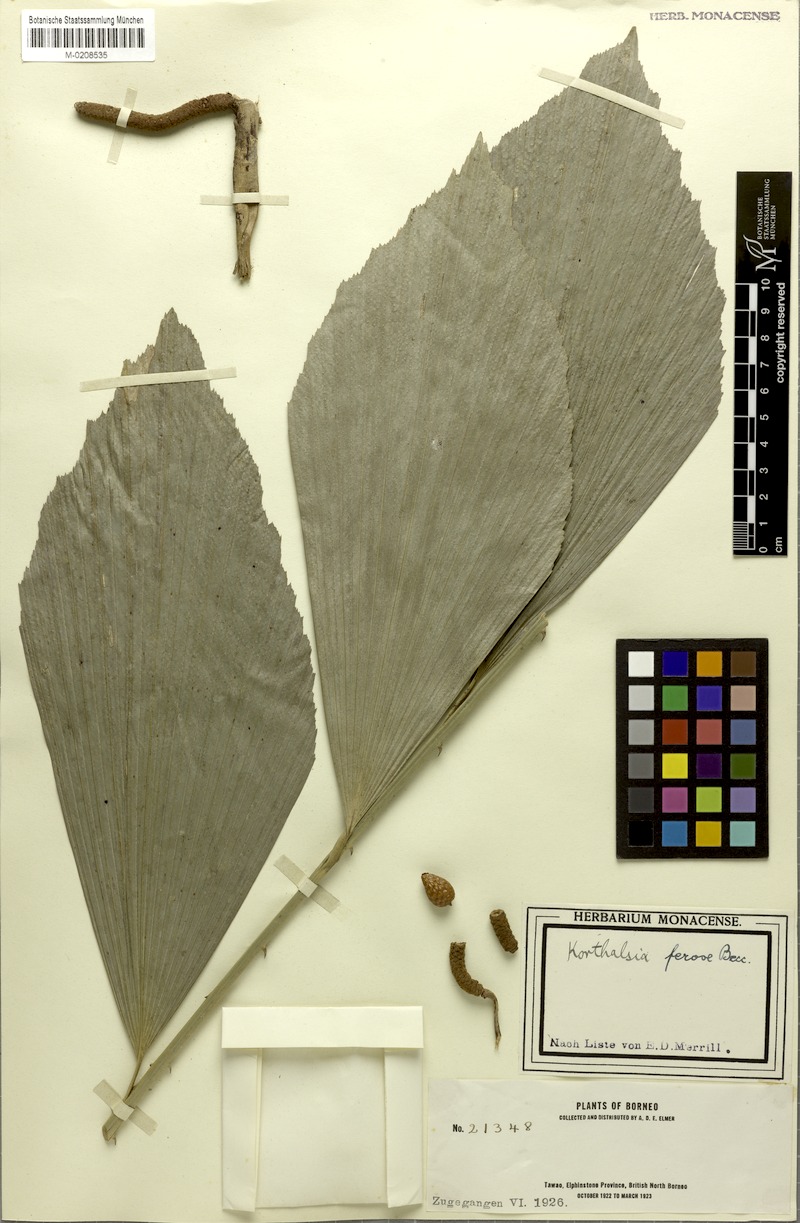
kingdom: Plantae
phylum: Tracheophyta
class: Liliopsida
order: Arecales
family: Arecaceae
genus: Korthalsia
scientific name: Korthalsia ferox
